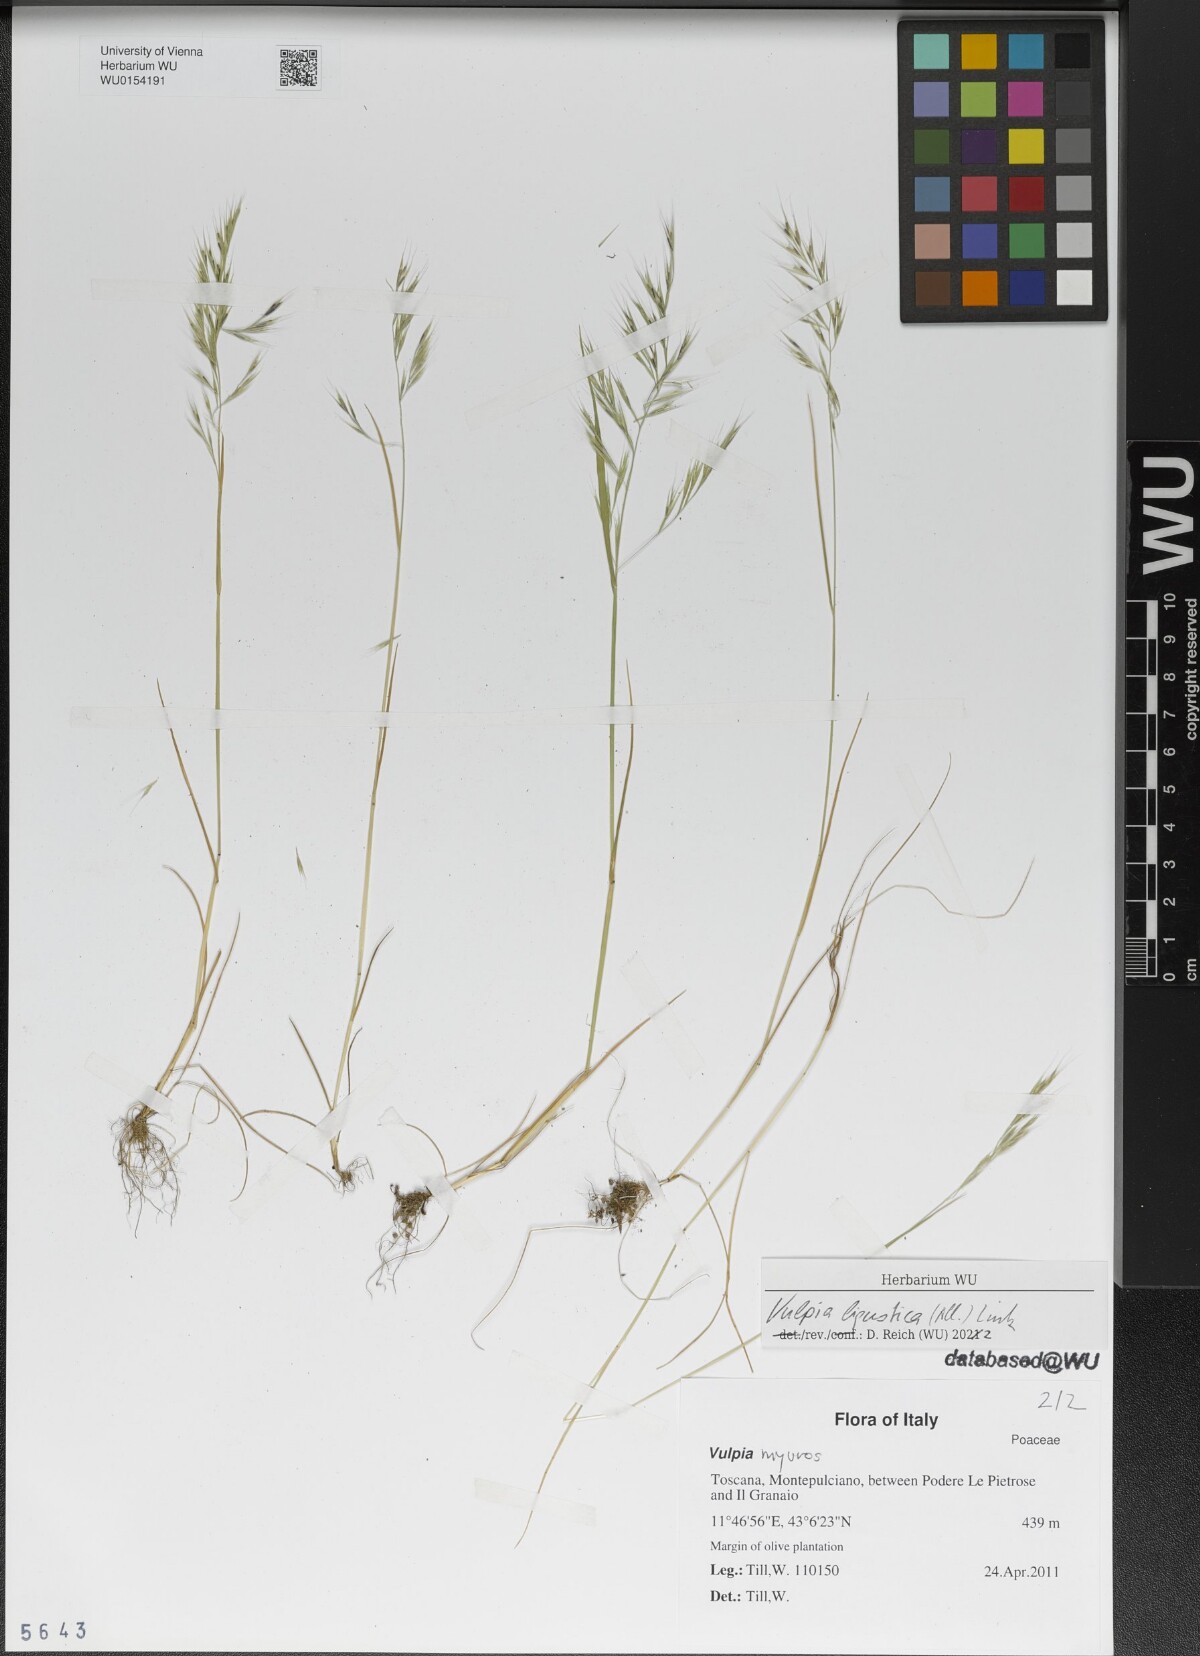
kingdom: Plantae
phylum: Tracheophyta
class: Liliopsida
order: Poales
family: Poaceae
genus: Festuca
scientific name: Festuca ligustica
